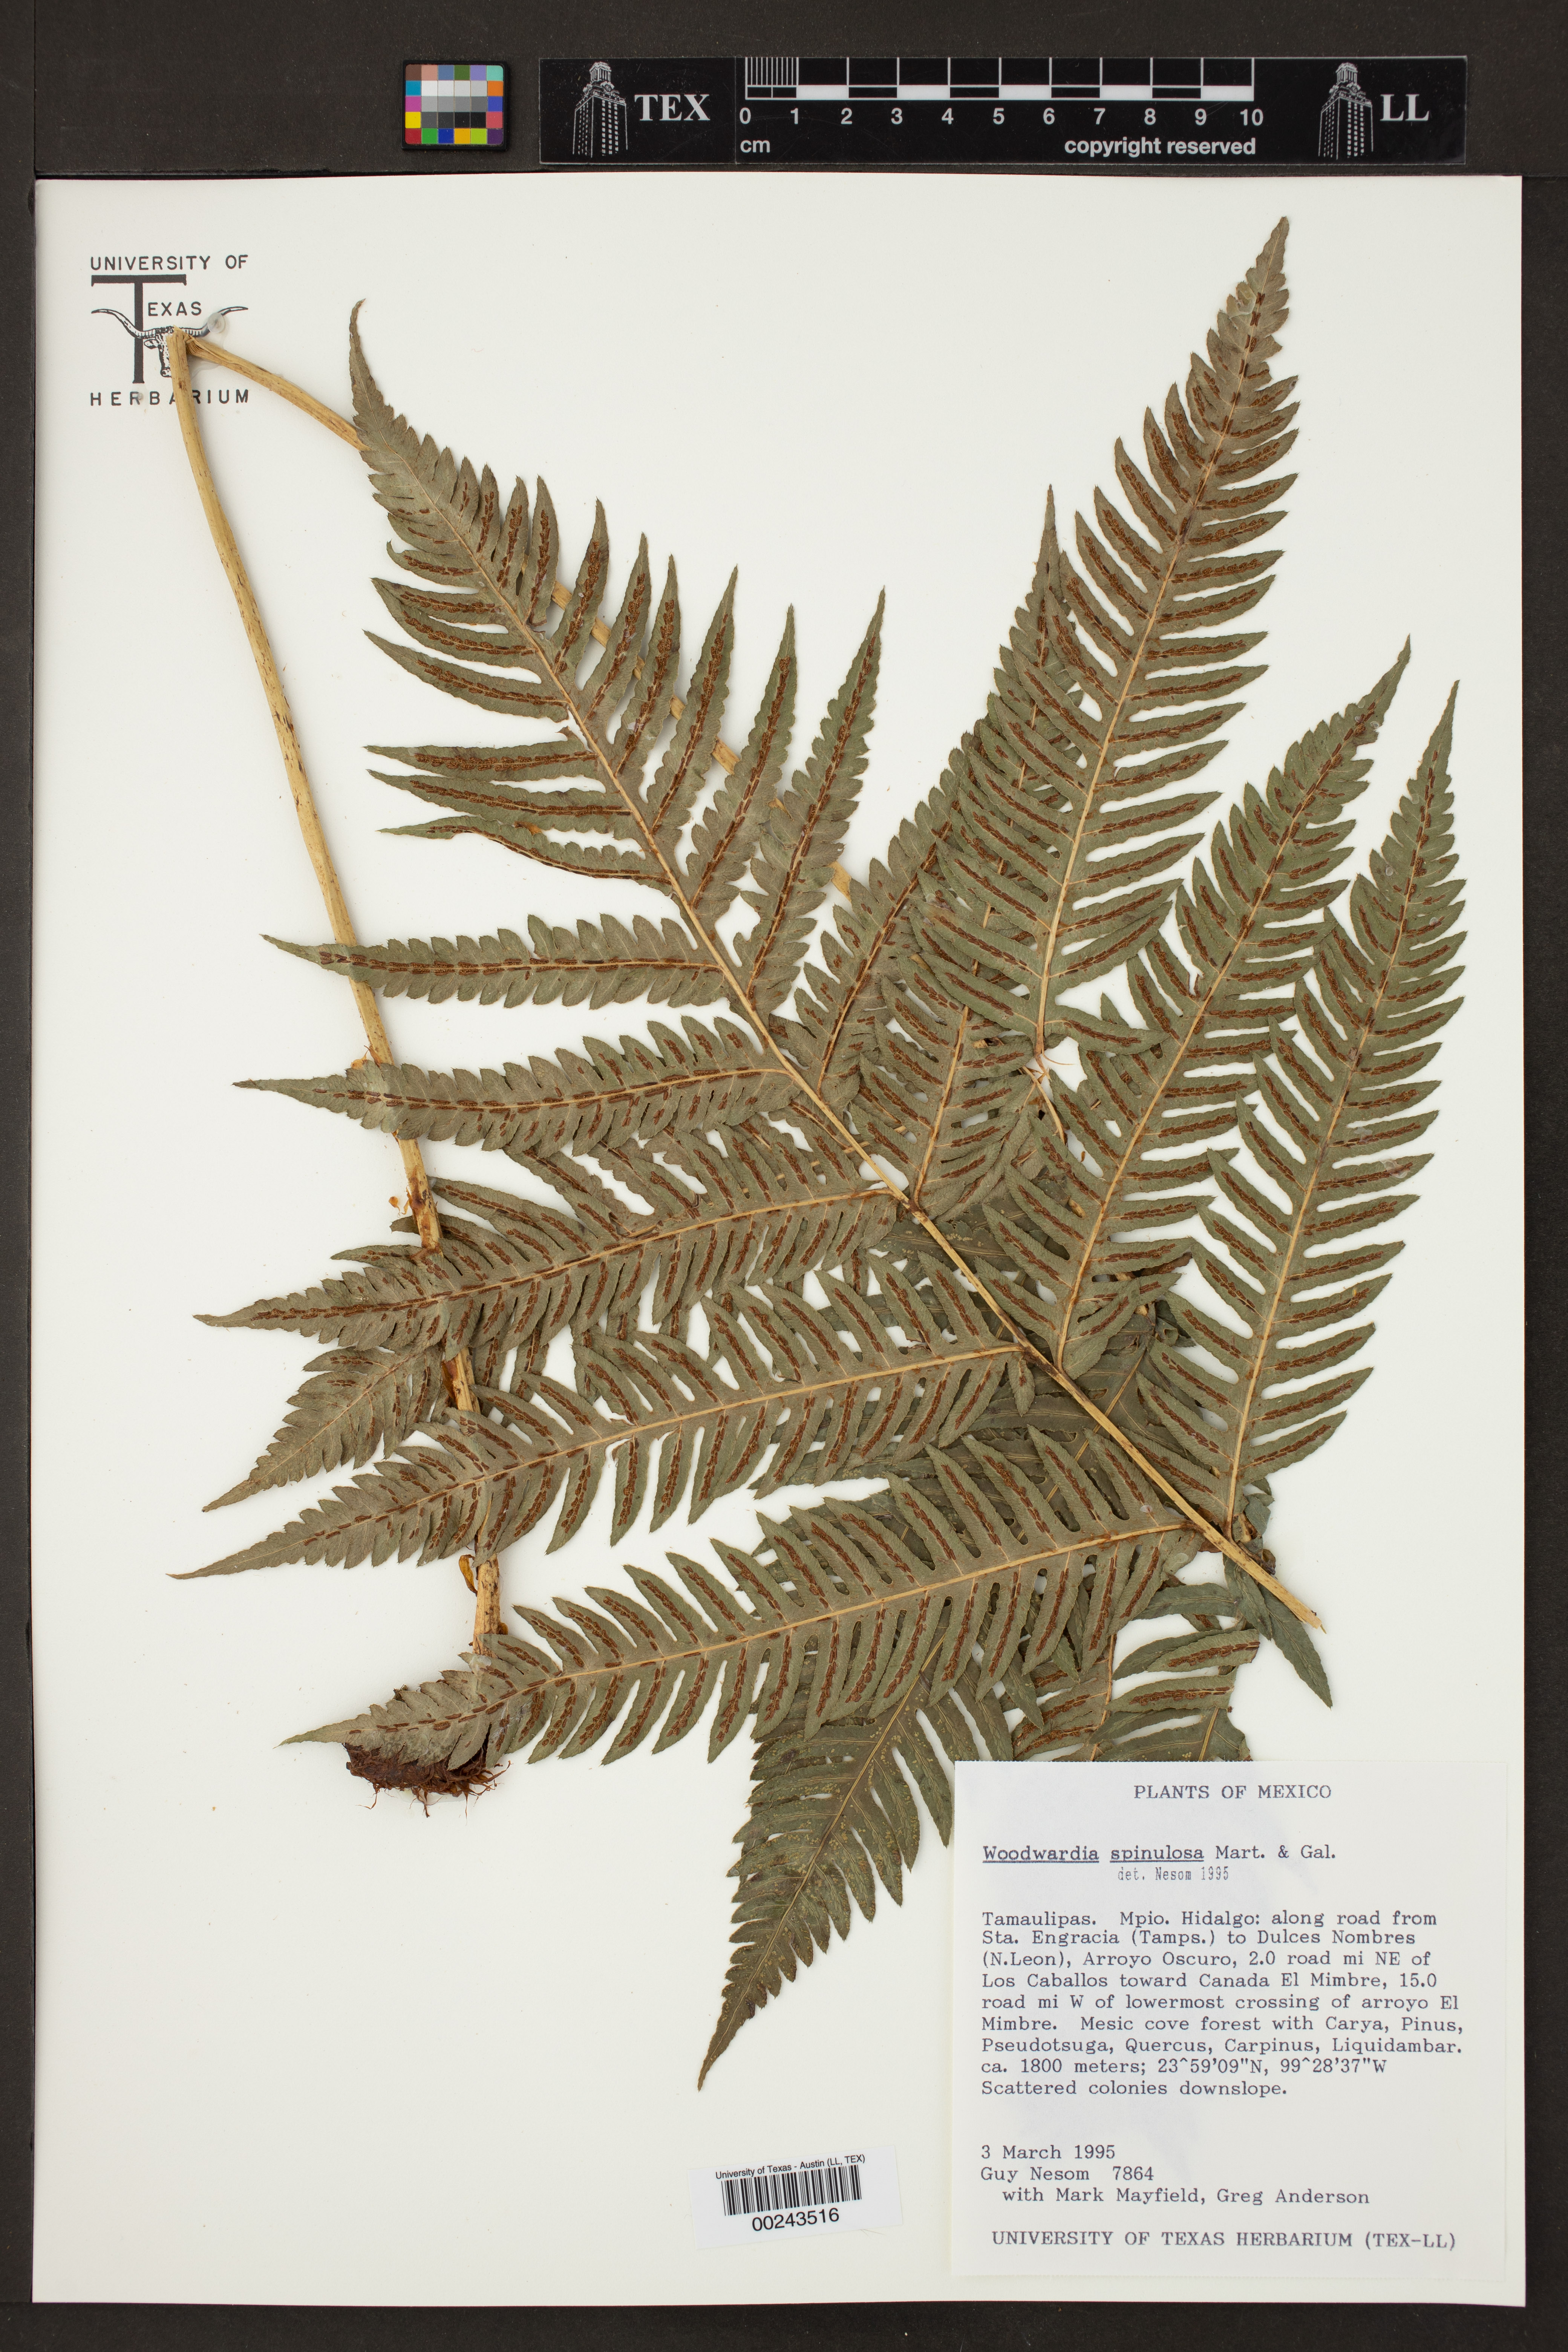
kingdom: Plantae
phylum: Tracheophyta
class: Polypodiopsida
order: Polypodiales
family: Blechnaceae
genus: Woodwardia
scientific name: Woodwardia spinulosa
